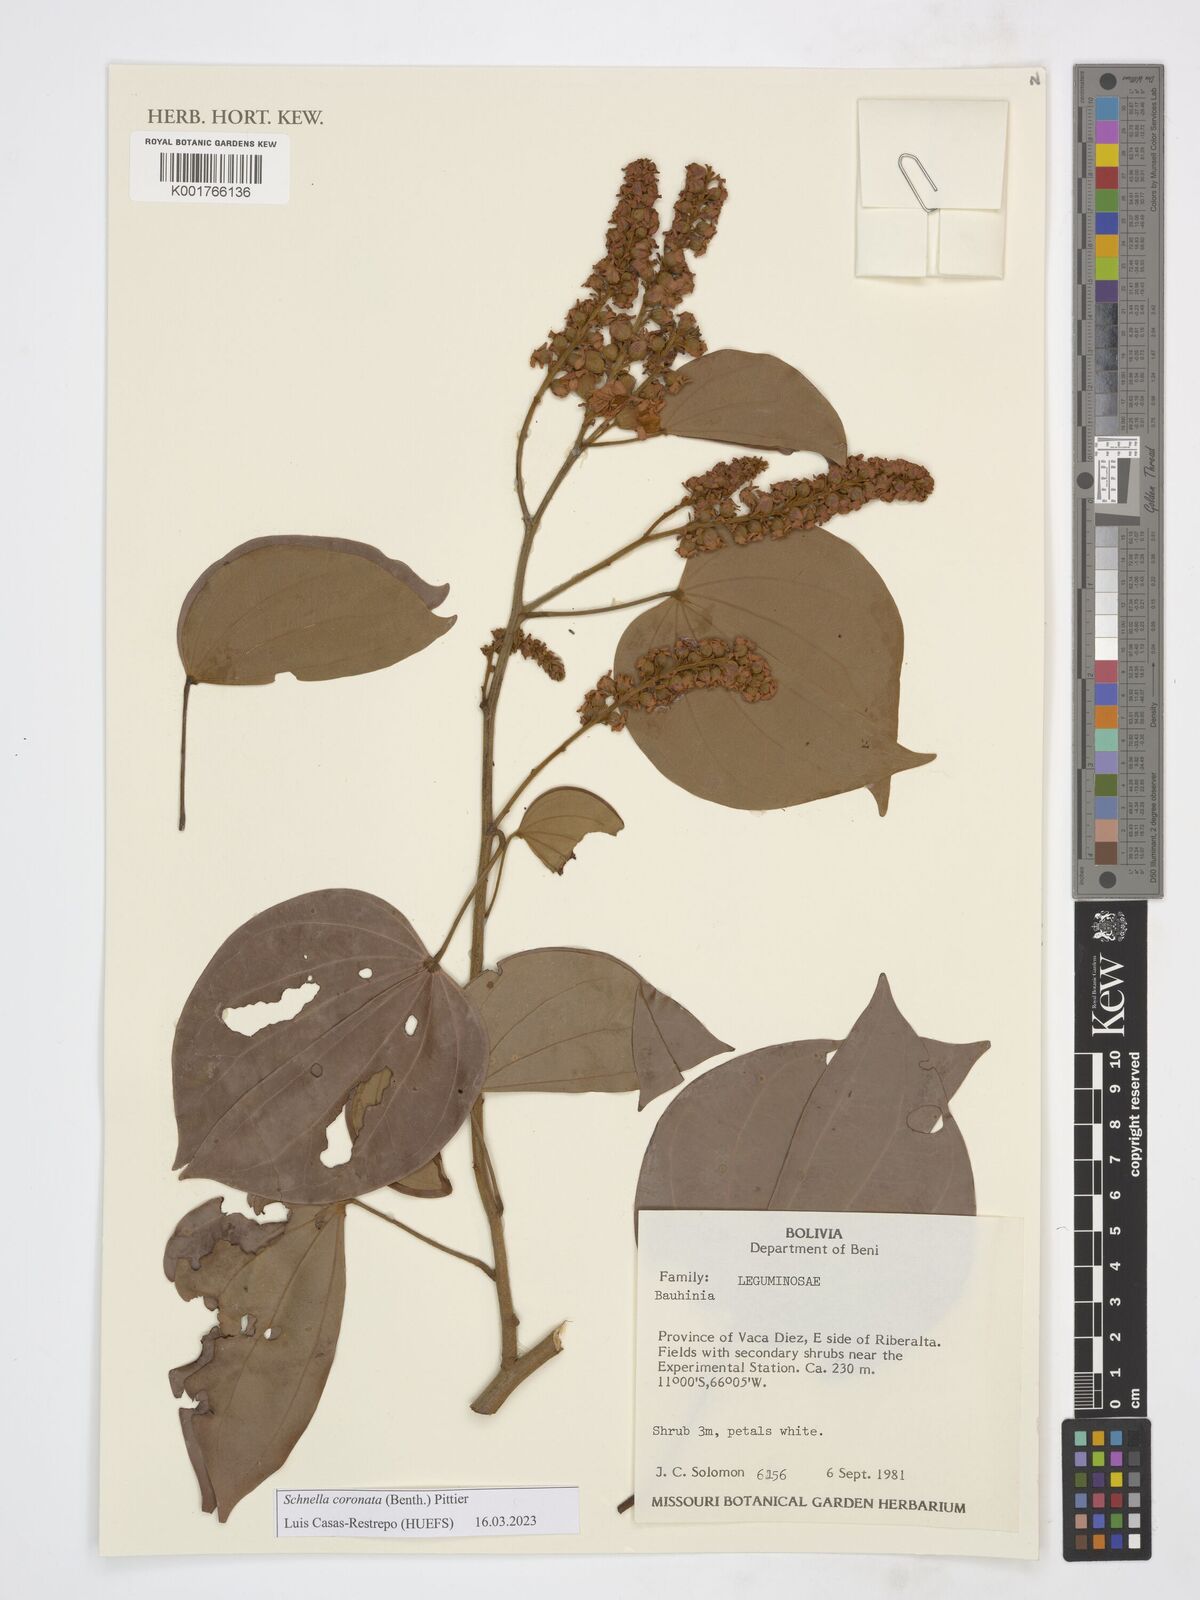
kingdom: Plantae
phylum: Tracheophyta
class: Magnoliopsida
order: Fabales
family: Fabaceae
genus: Schnella
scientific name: Schnella outimouta
